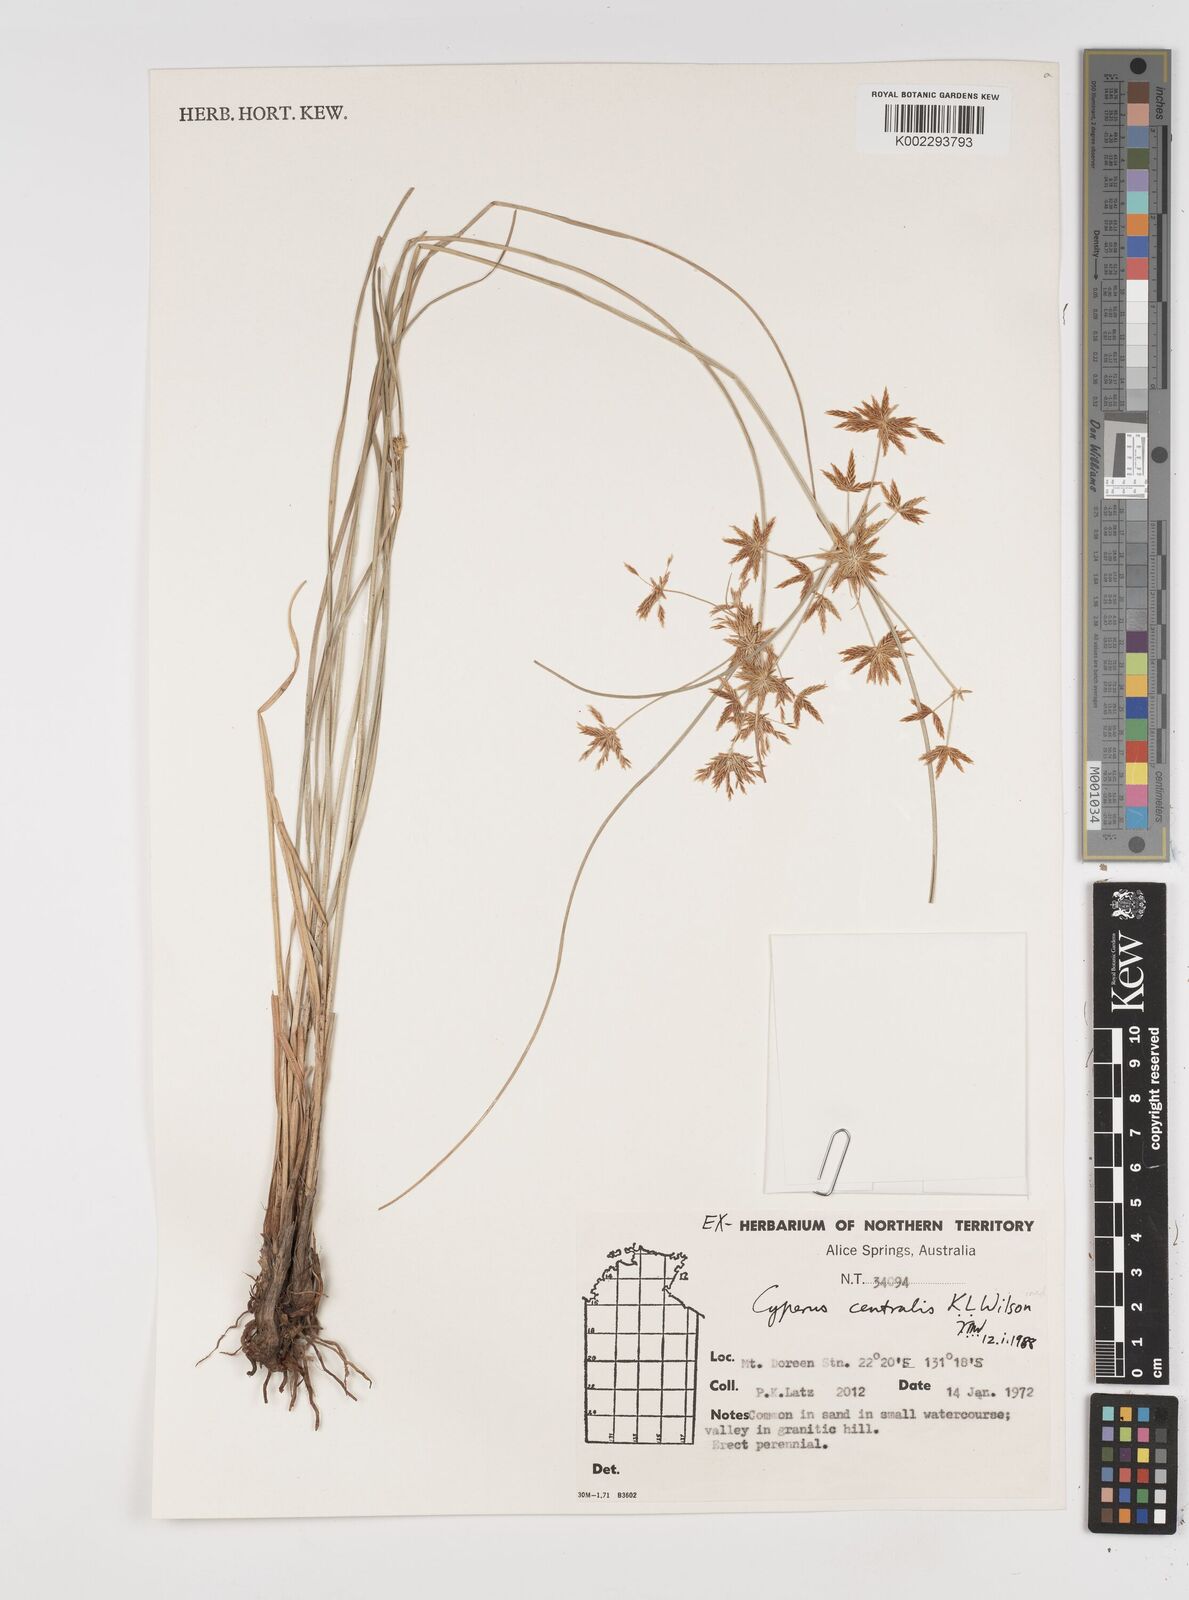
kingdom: Plantae
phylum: Tracheophyta
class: Liliopsida
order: Poales
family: Cyperaceae
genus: Cyperus
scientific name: Cyperus centralis
